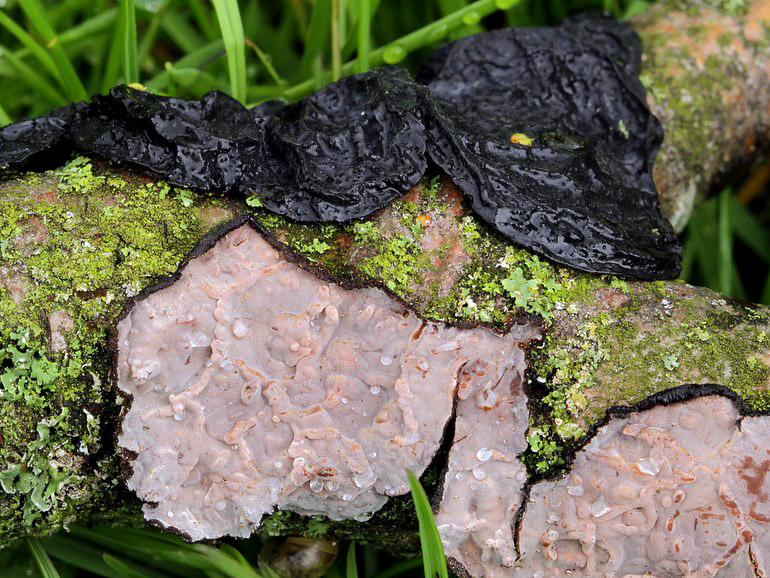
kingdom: Fungi
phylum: Basidiomycota
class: Agaricomycetes
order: Russulales
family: Peniophoraceae
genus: Peniophora
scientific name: Peniophora quercina
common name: ege-voksskind
